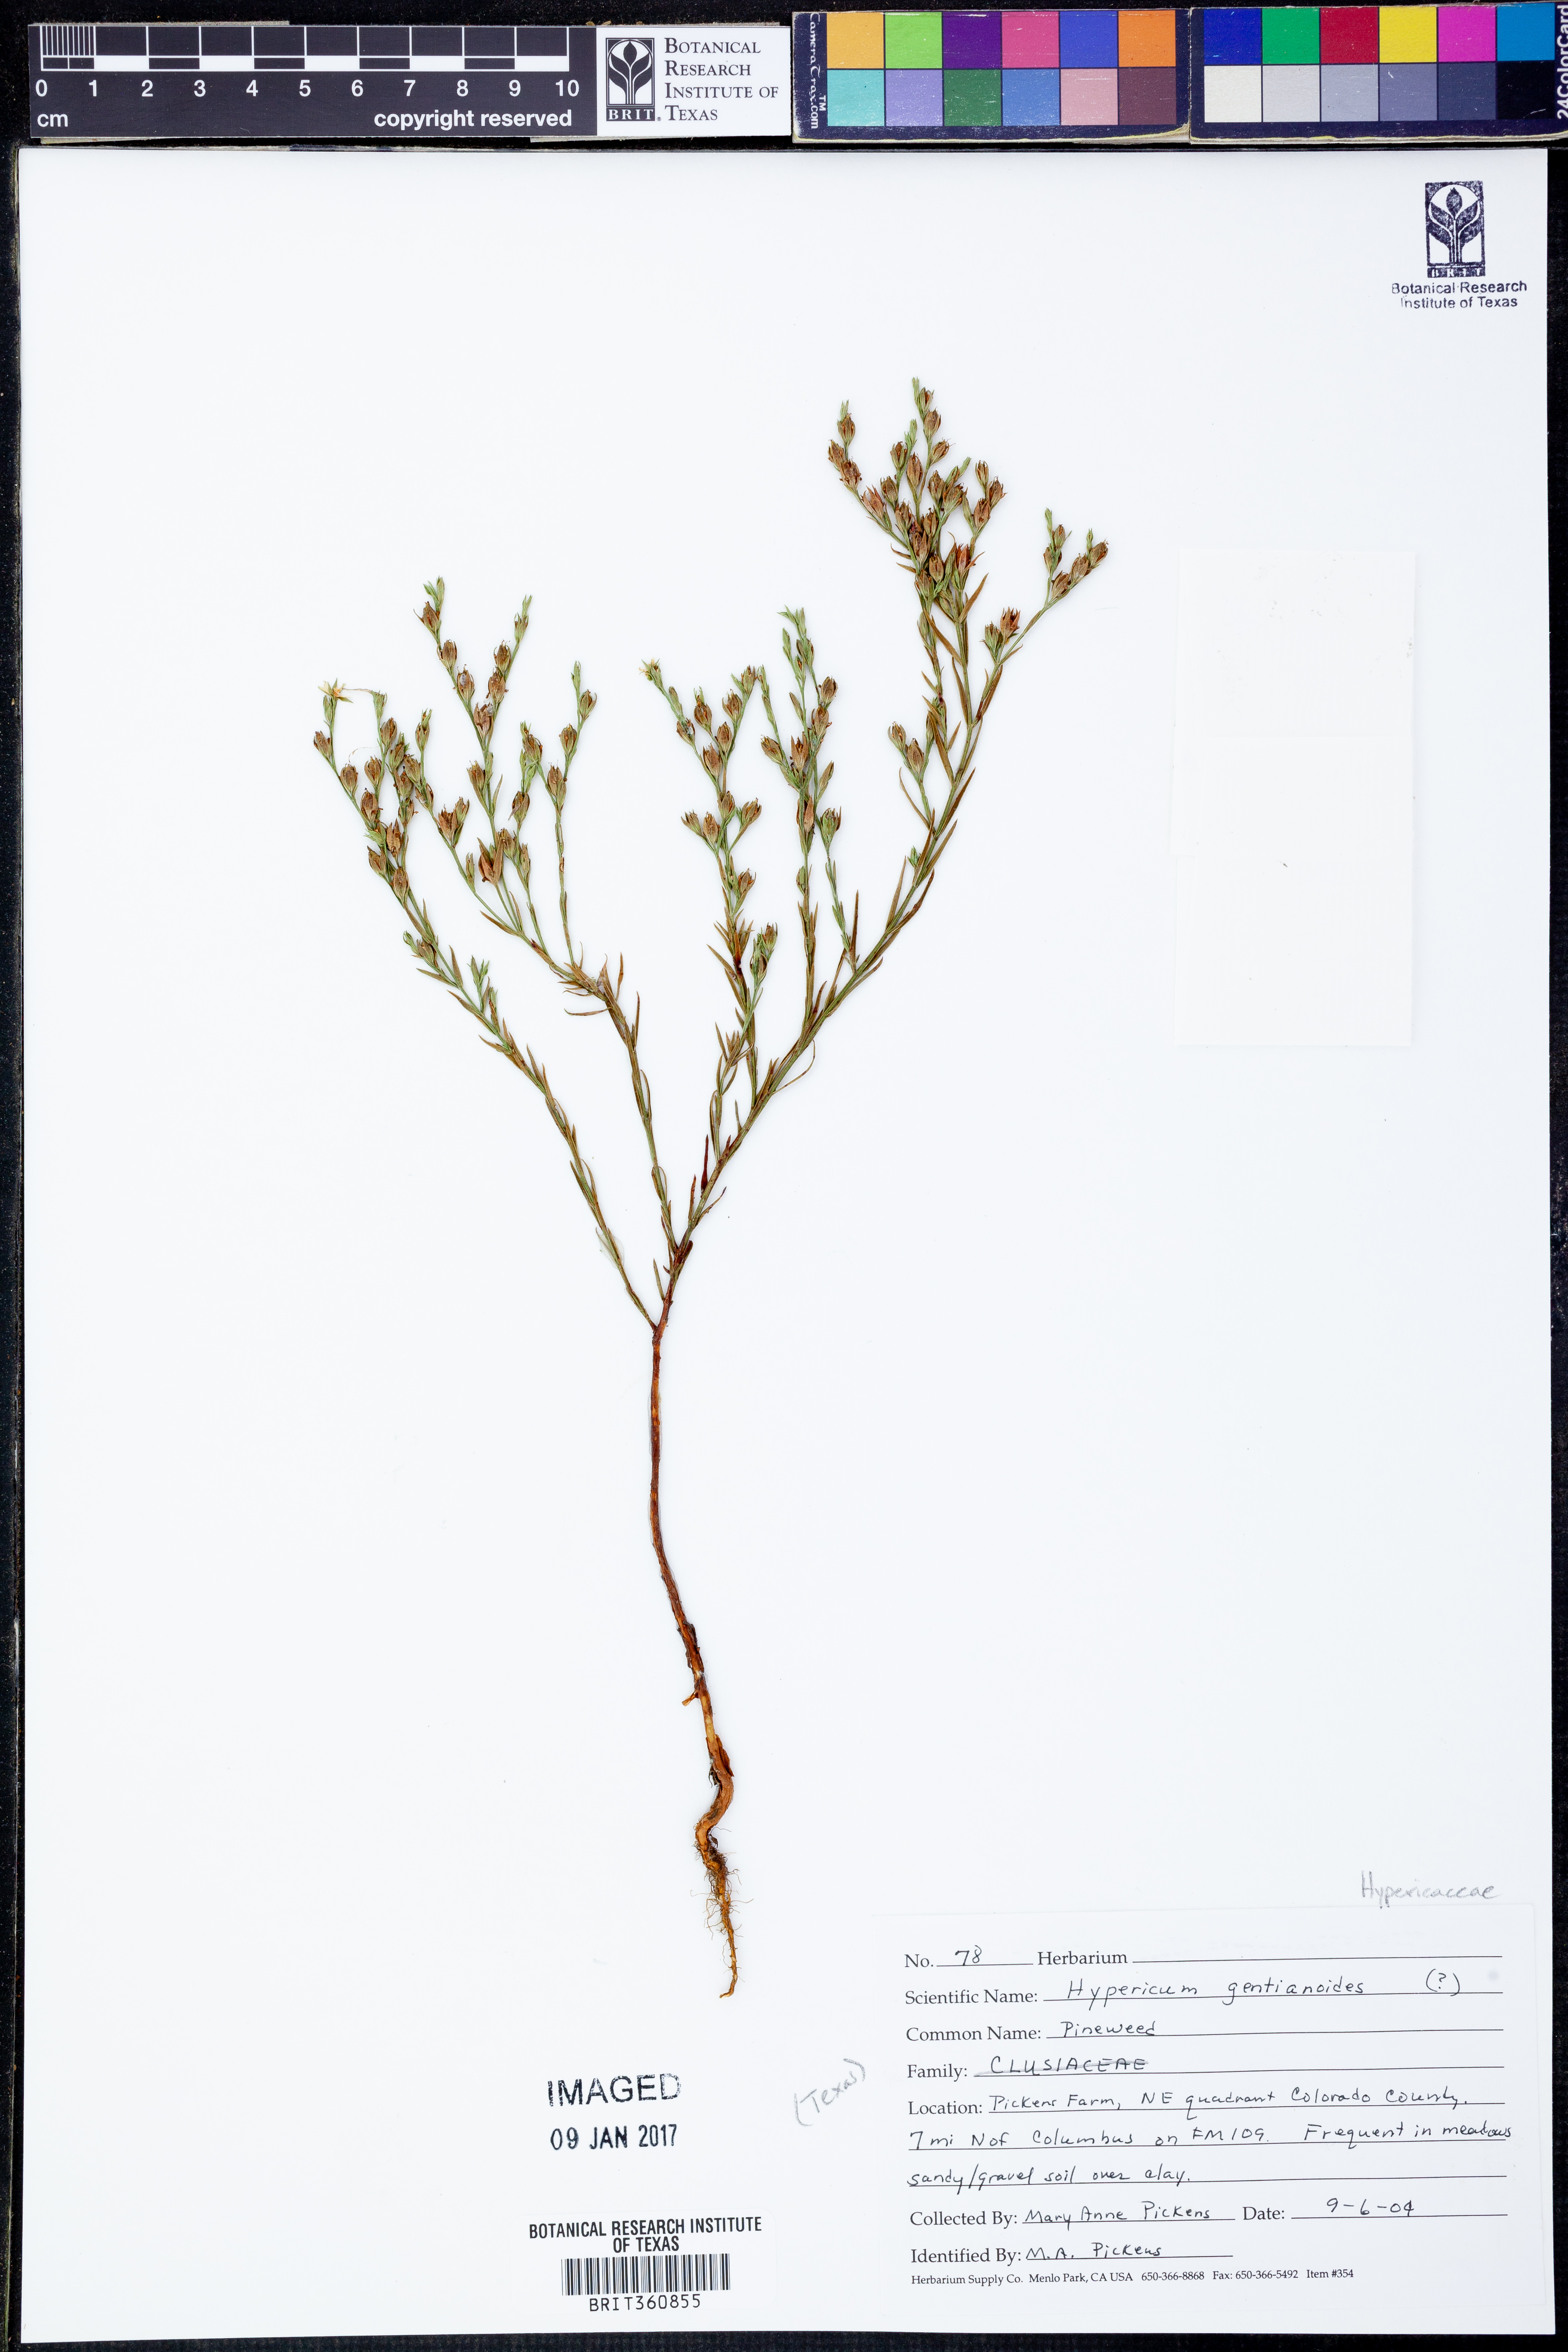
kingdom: Plantae
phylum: Tracheophyta
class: Magnoliopsida
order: Malpighiales
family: Hypericaceae
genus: Hypericum
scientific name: Hypericum gentianoides
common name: Gentian-leaved st. john's-wort
